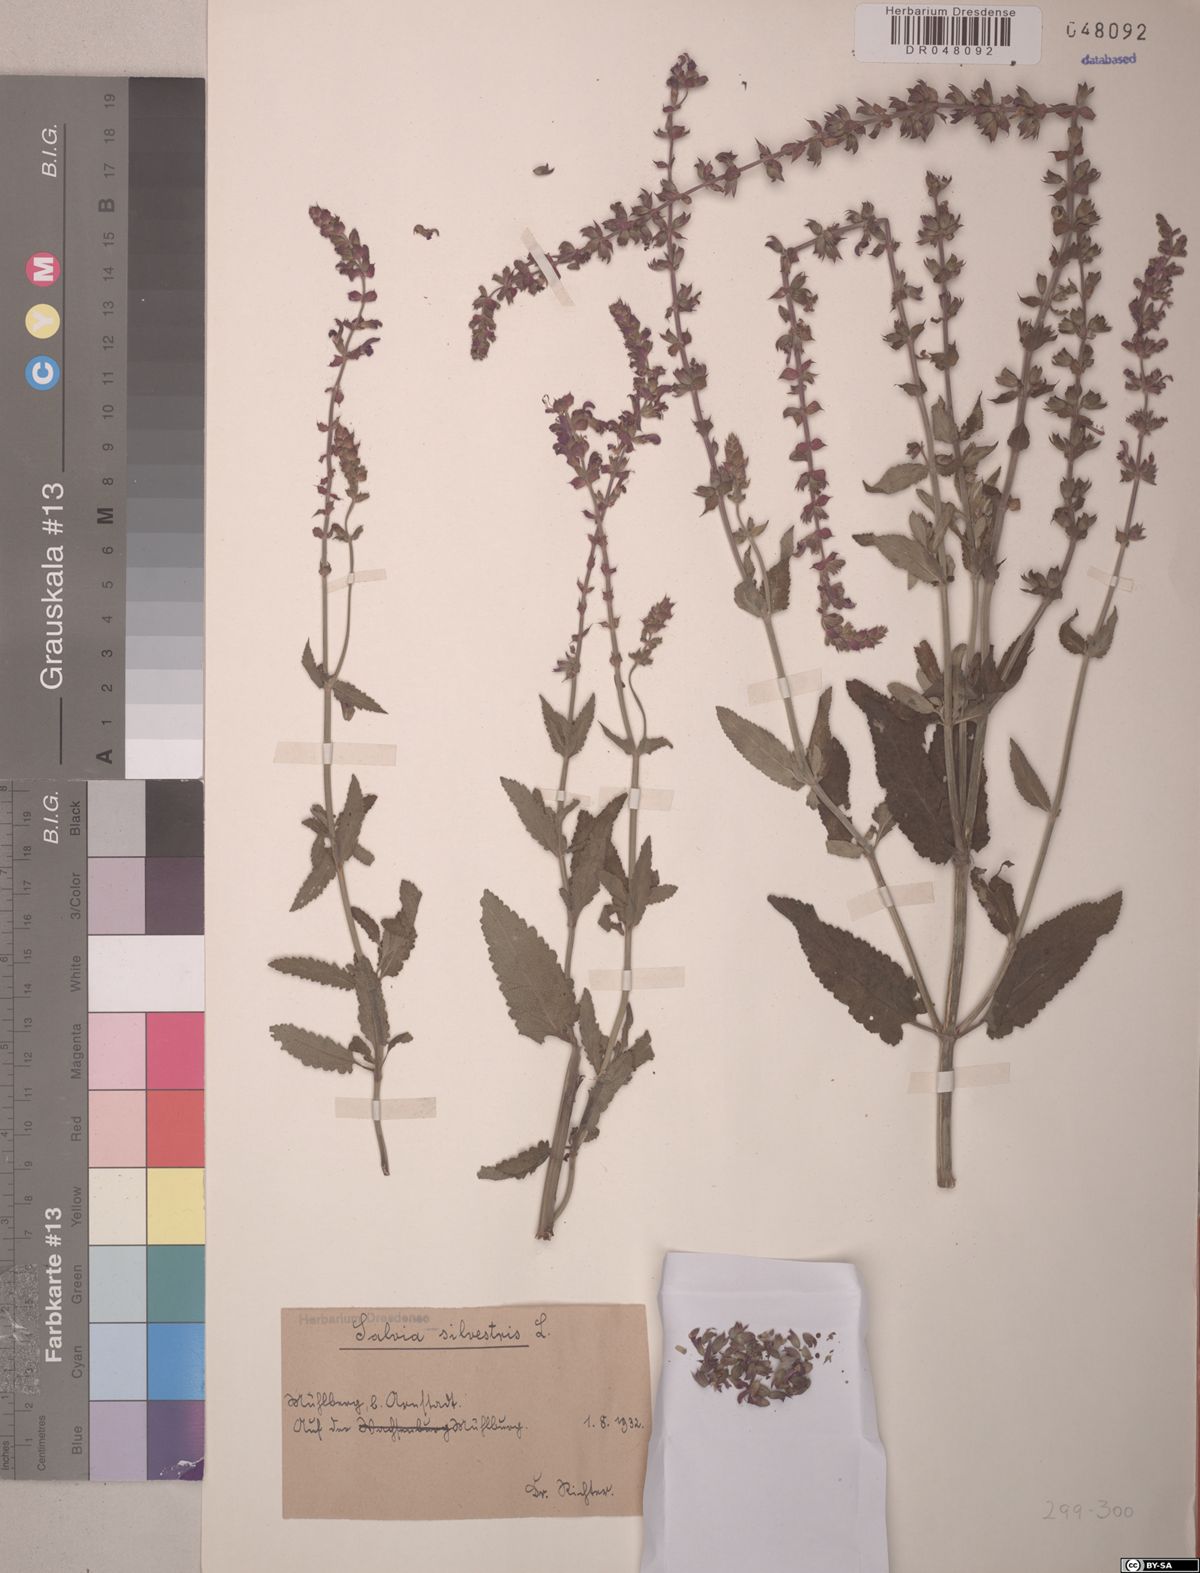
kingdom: Plantae
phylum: Tracheophyta
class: Magnoliopsida
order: Lamiales
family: Lamiaceae
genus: Salvia
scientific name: Salvia sylvestris
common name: Woodland sage
